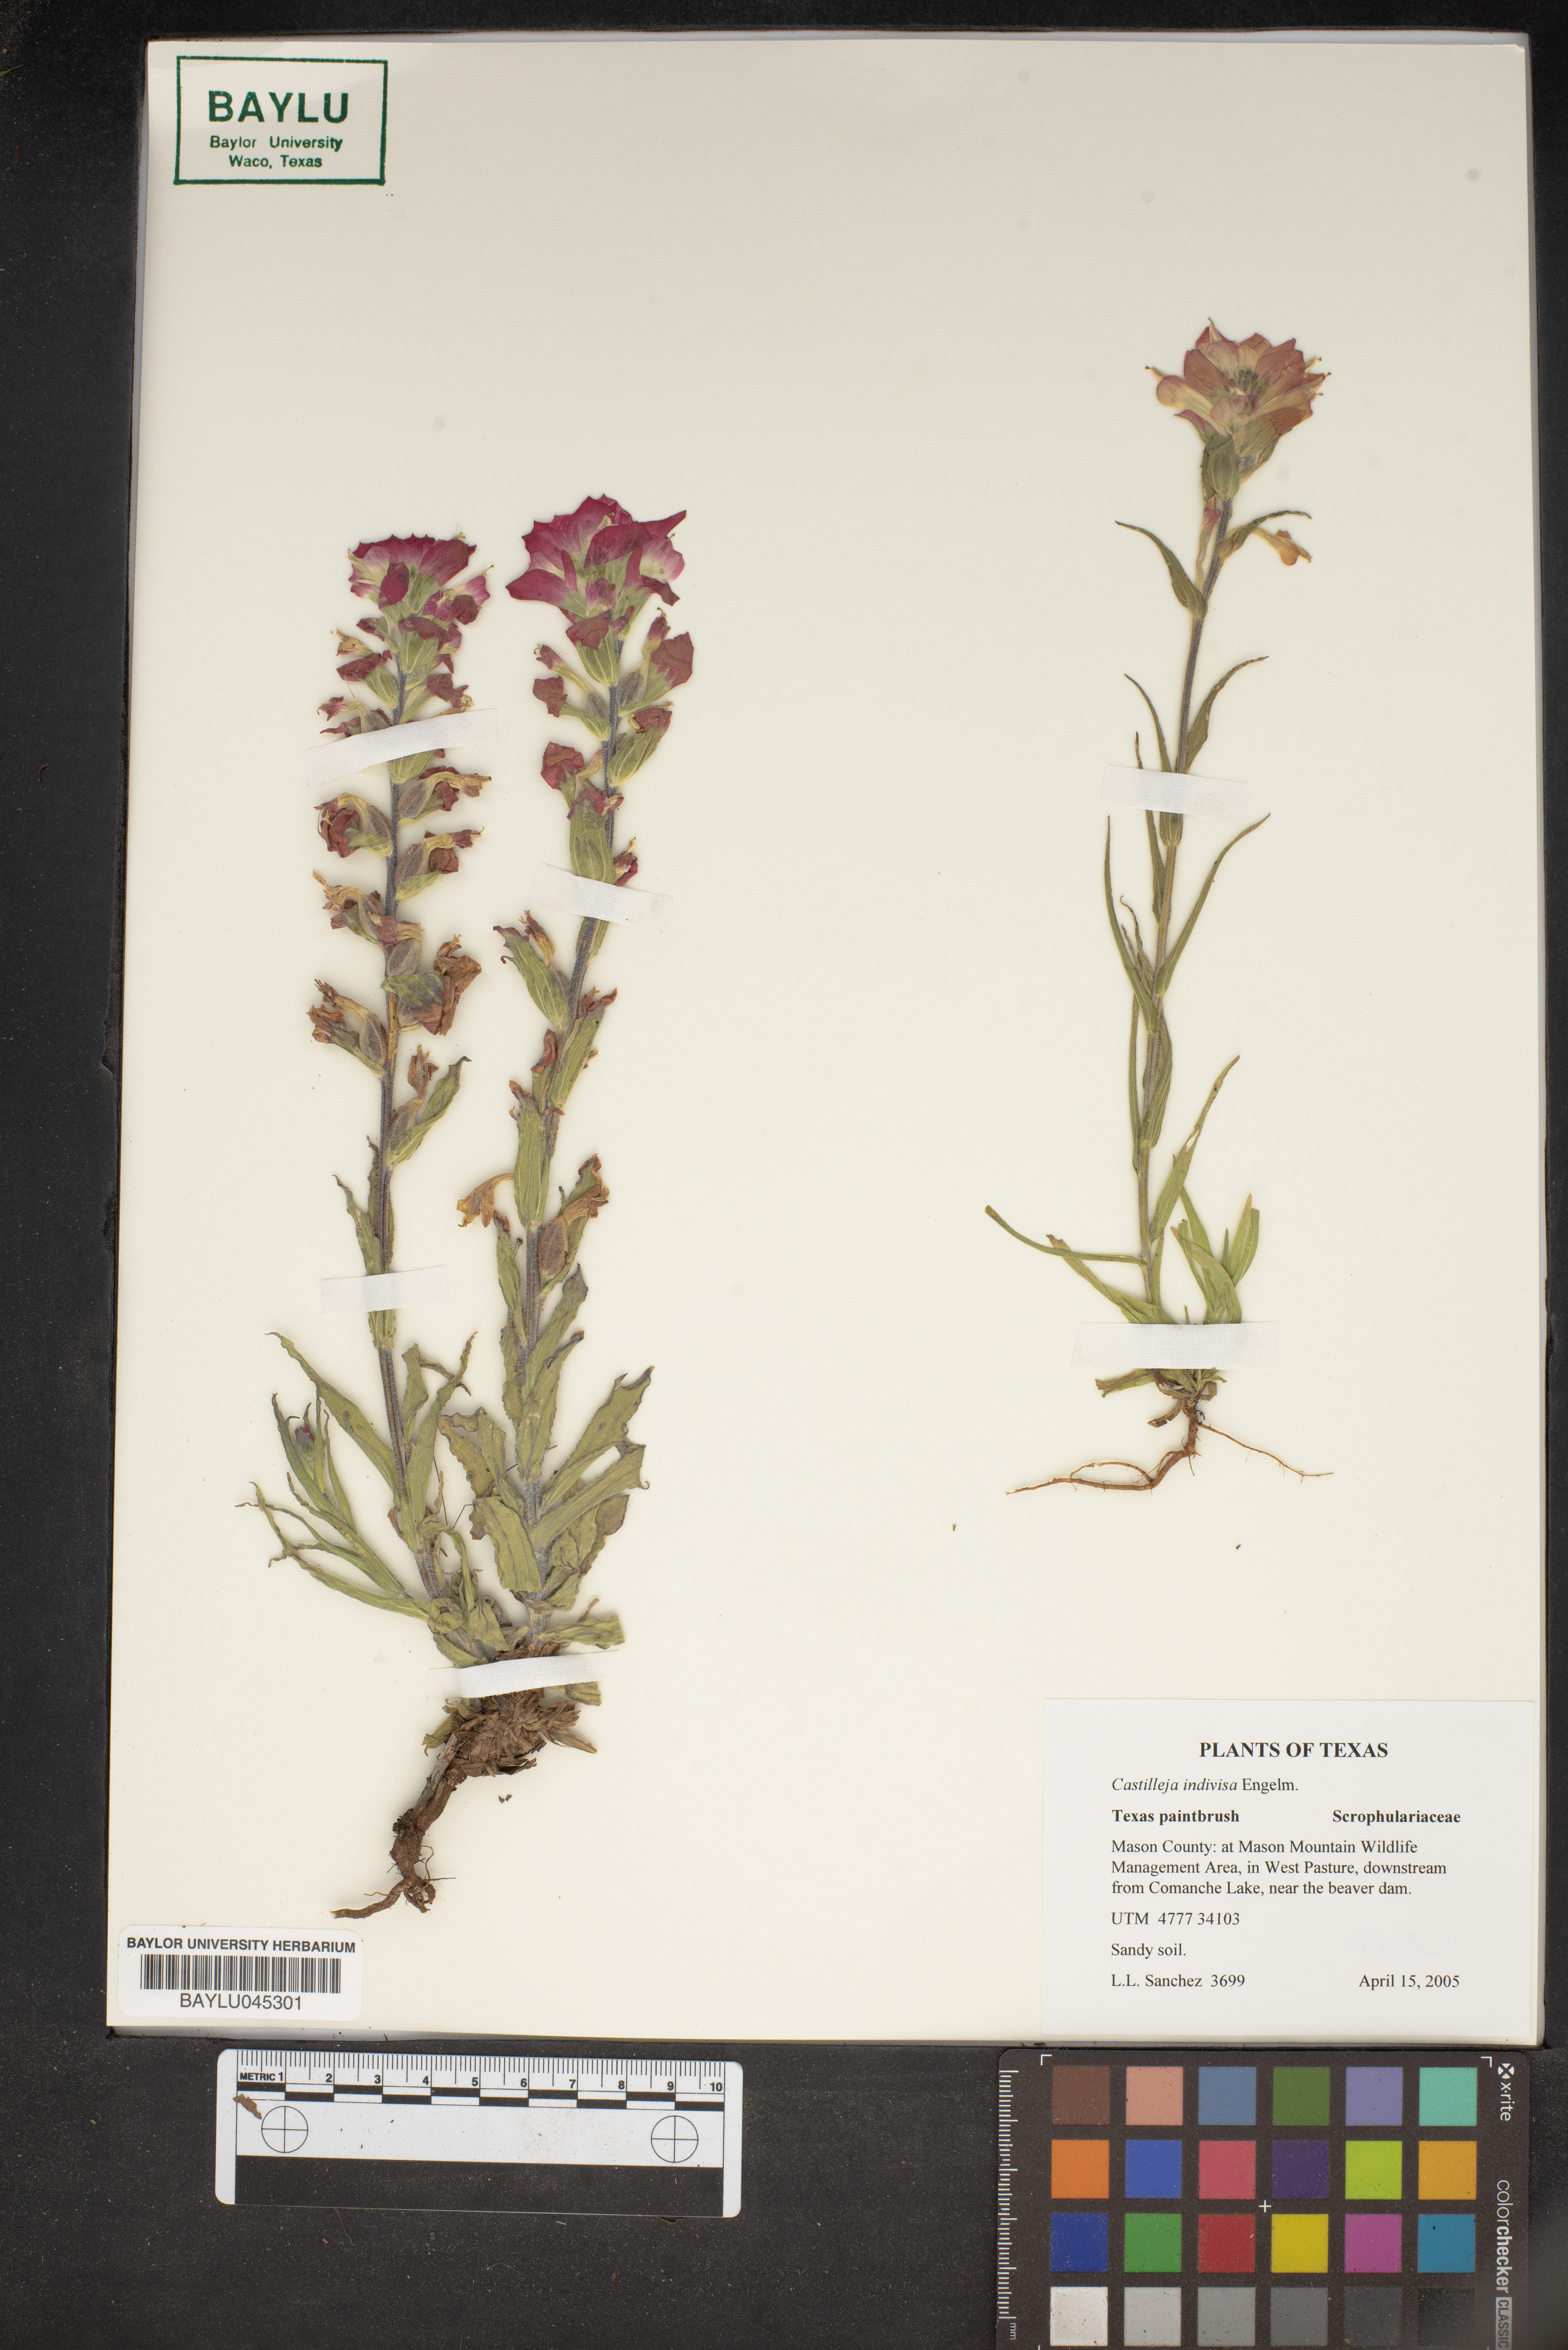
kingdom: Plantae
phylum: Tracheophyta
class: Magnoliopsida
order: Lamiales
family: Orobanchaceae
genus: Castilleja
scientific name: Castilleja indivisa
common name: Texas paintbrush
